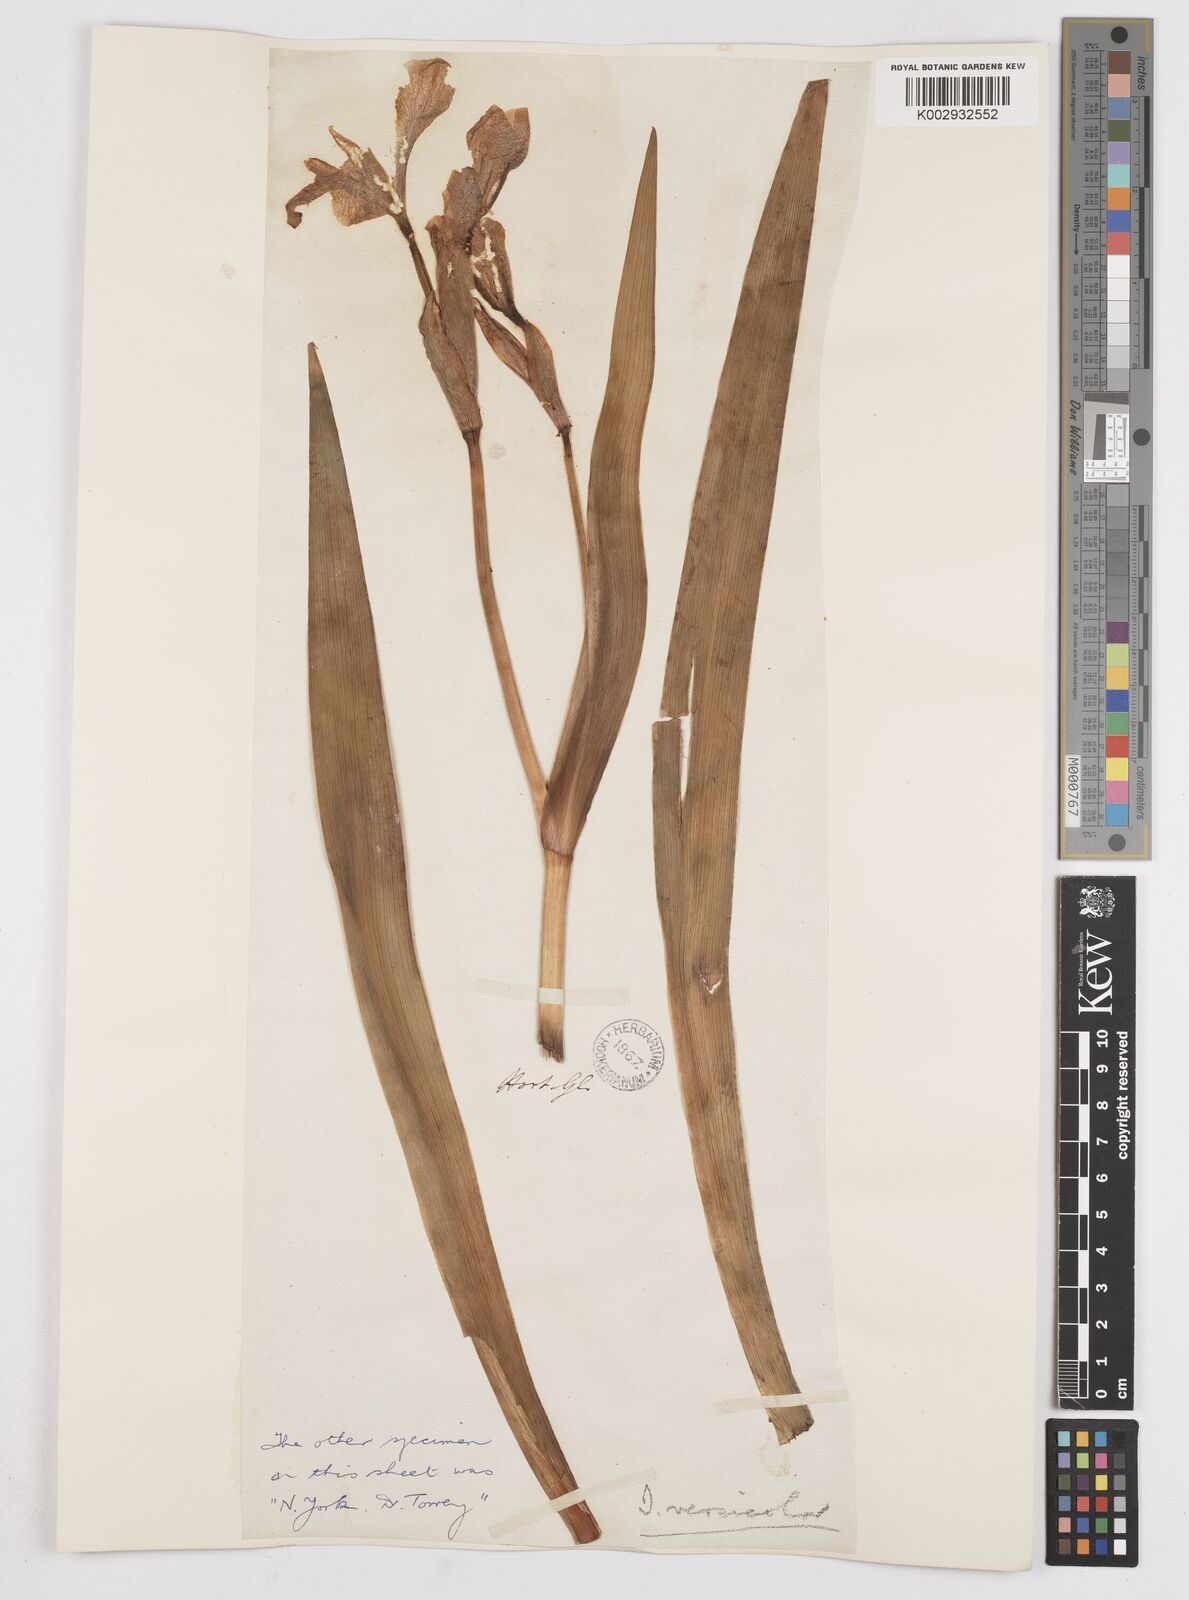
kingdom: Plantae
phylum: Tracheophyta
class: Liliopsida
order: Asparagales
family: Iridaceae
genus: Iris
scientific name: Iris versicolor
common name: Purple iris
